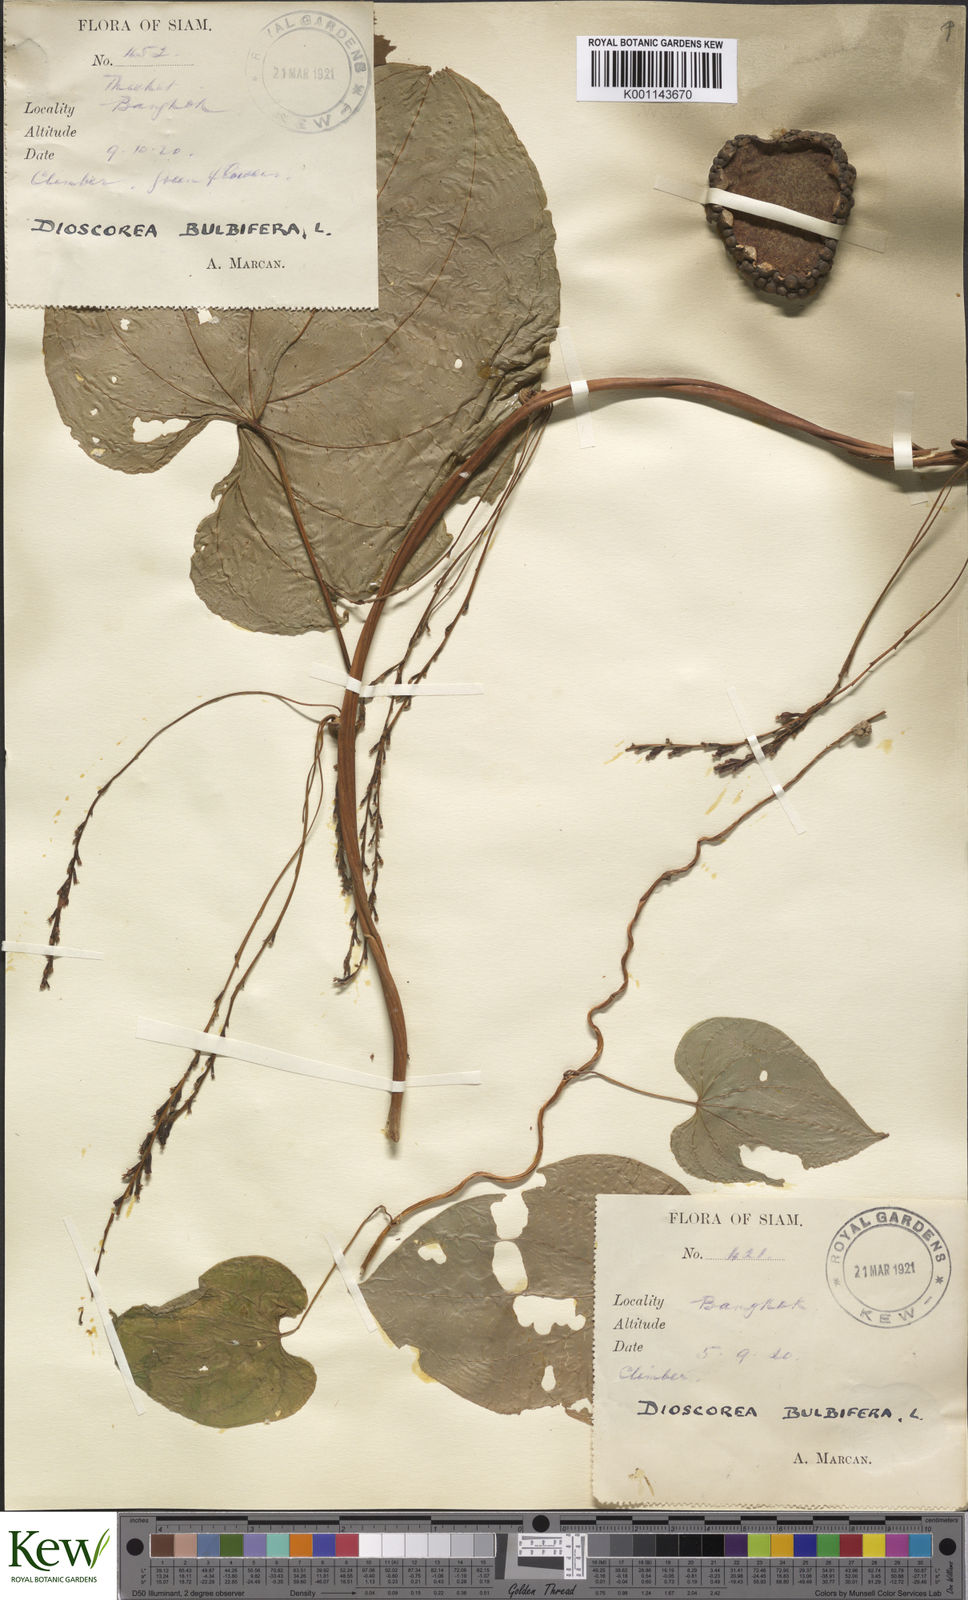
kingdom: Plantae
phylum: Tracheophyta
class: Liliopsida
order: Dioscoreales
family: Dioscoreaceae
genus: Dioscorea
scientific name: Dioscorea bulbifera
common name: Air yam
